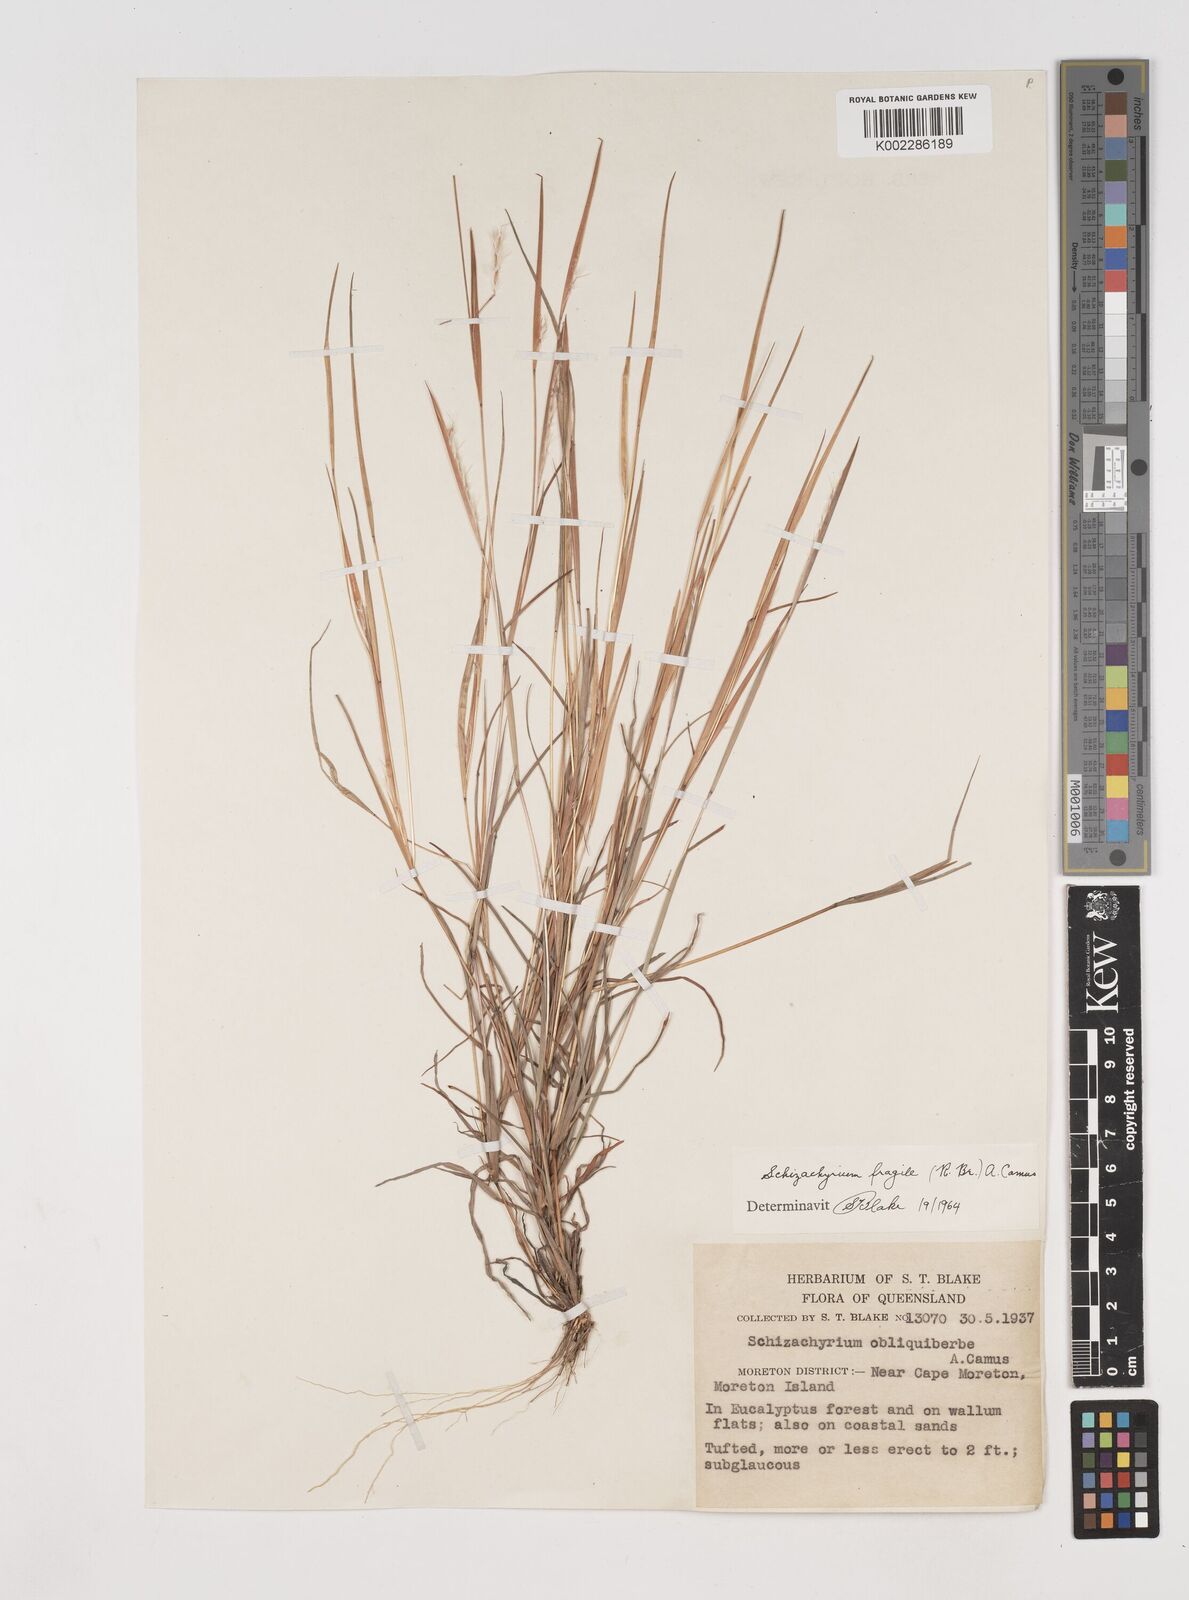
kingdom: Plantae
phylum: Tracheophyta
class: Liliopsida
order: Poales
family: Poaceae
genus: Schizachyrium
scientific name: Schizachyrium fragile
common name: Red spathe grass
